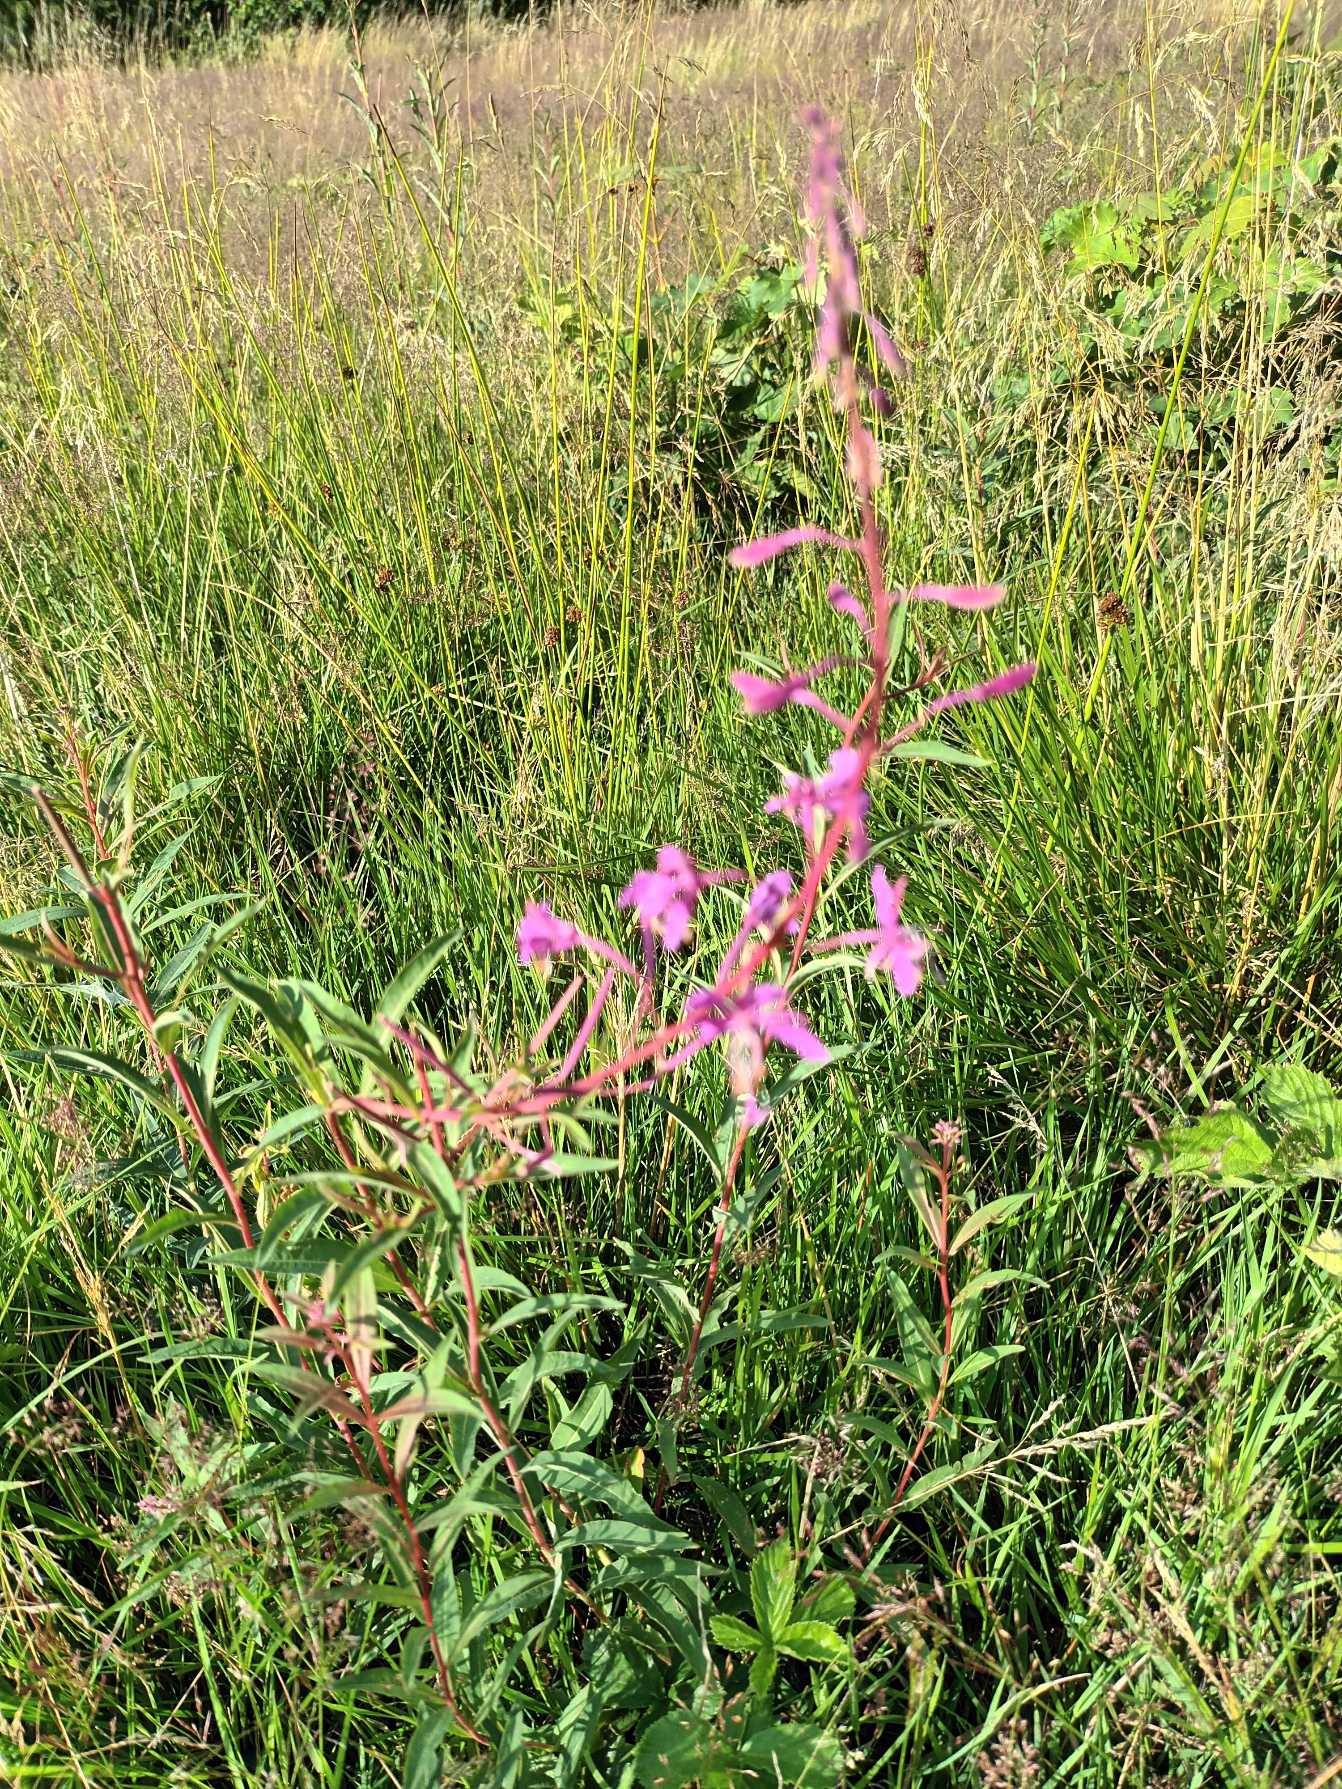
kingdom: Plantae
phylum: Tracheophyta
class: Magnoliopsida
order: Myrtales
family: Onagraceae
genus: Chamaenerion
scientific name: Chamaenerion angustifolium
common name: Gederams
